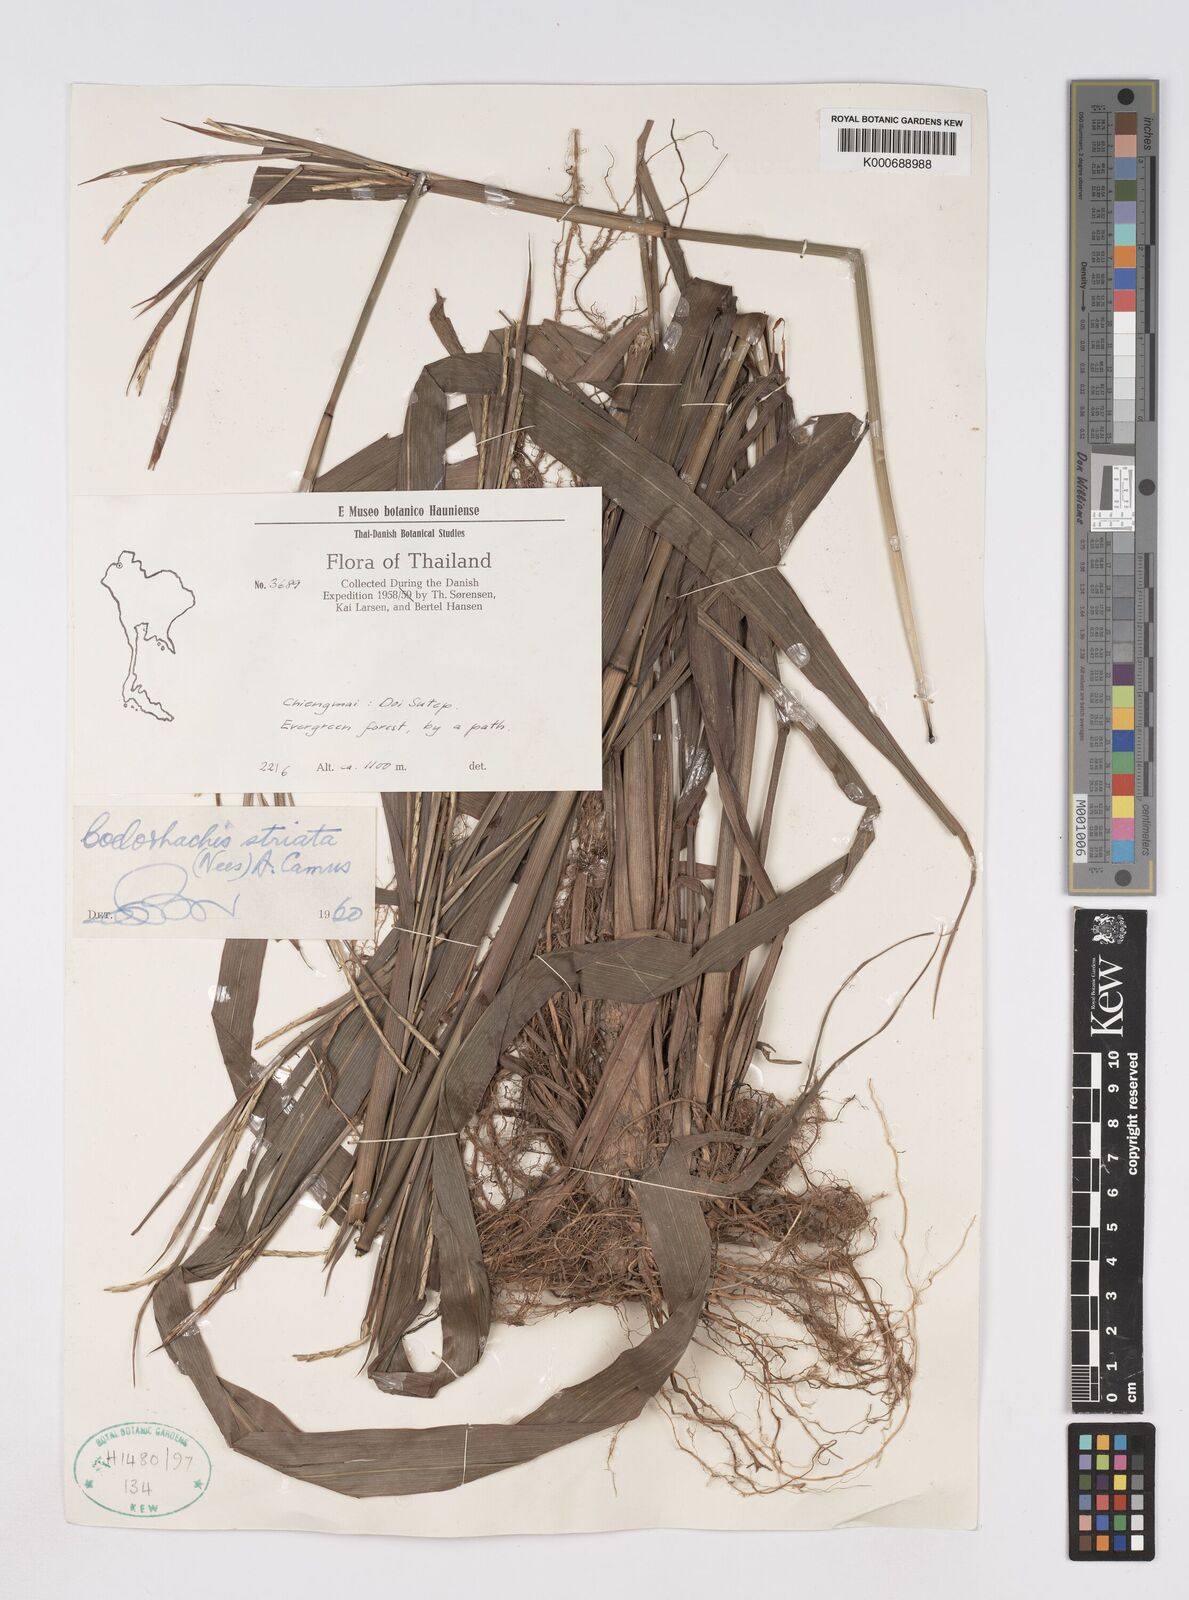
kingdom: Plantae
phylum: Tracheophyta
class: Liliopsida
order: Poales
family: Poaceae
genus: Rottboellia
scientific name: Rottboellia striata
